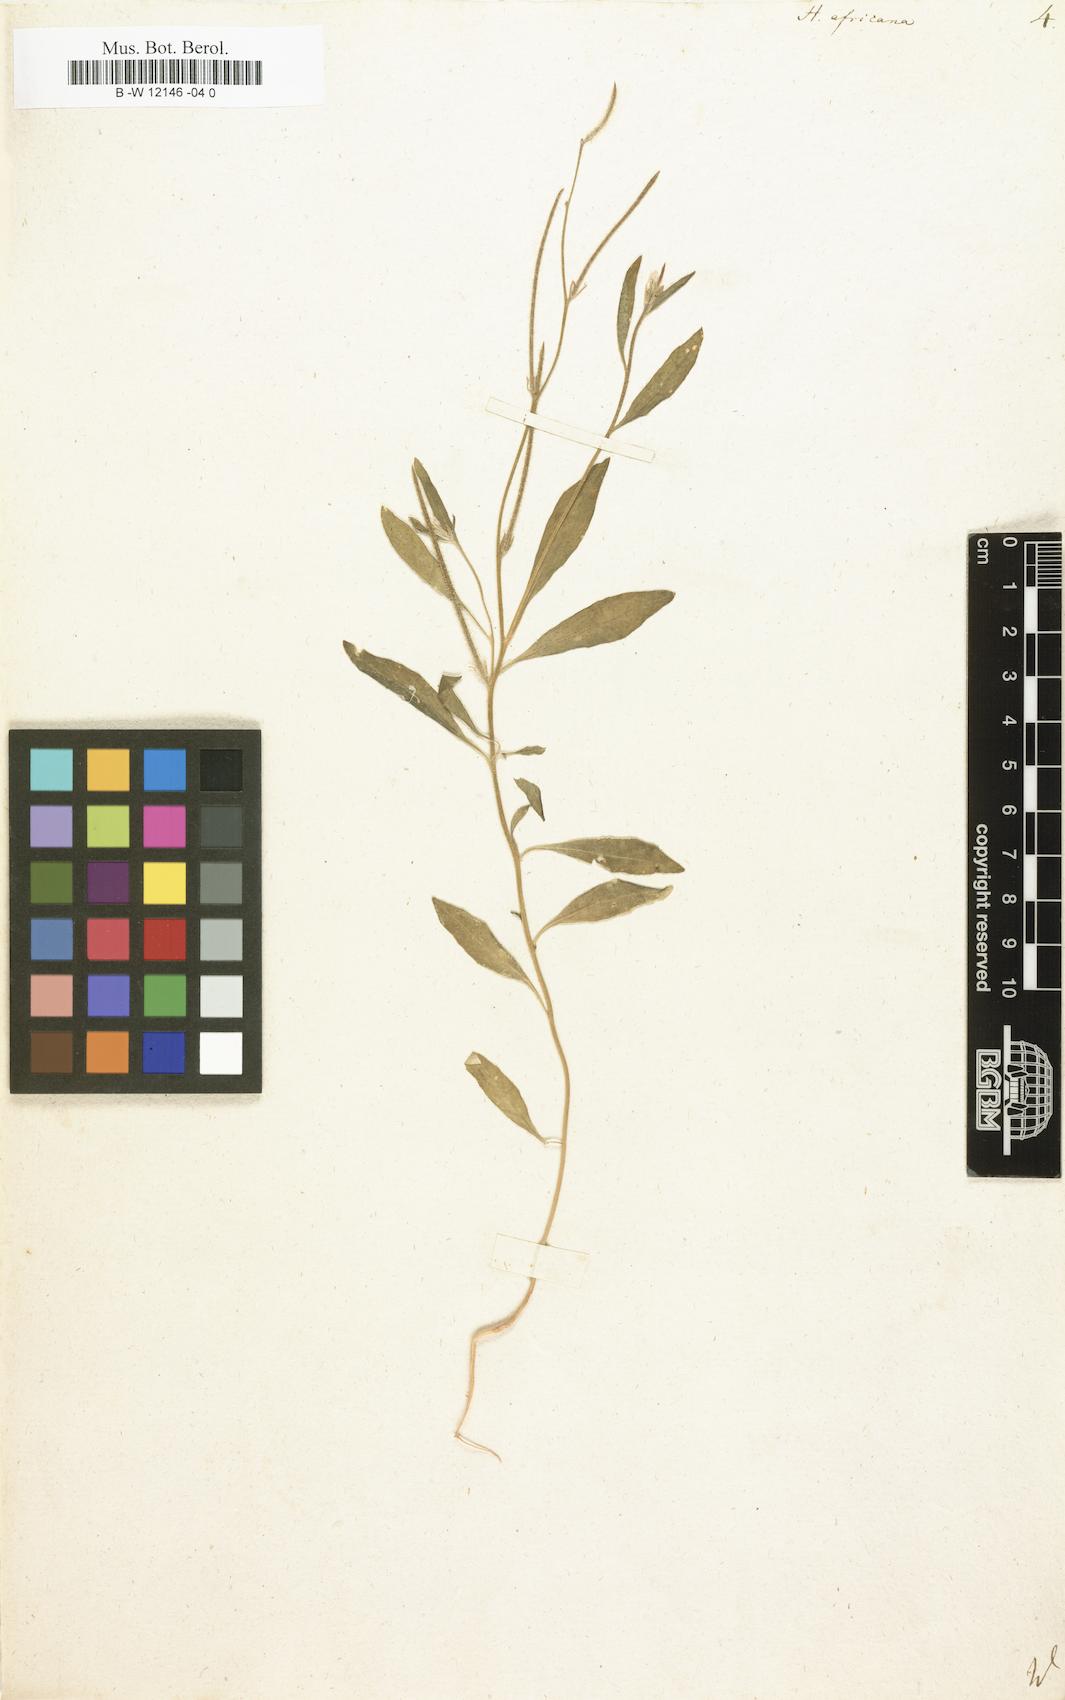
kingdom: Plantae
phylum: Tracheophyta
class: Magnoliopsida
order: Brassicales
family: Brassicaceae
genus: Strigosella
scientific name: Strigosella africana
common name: African mustard
